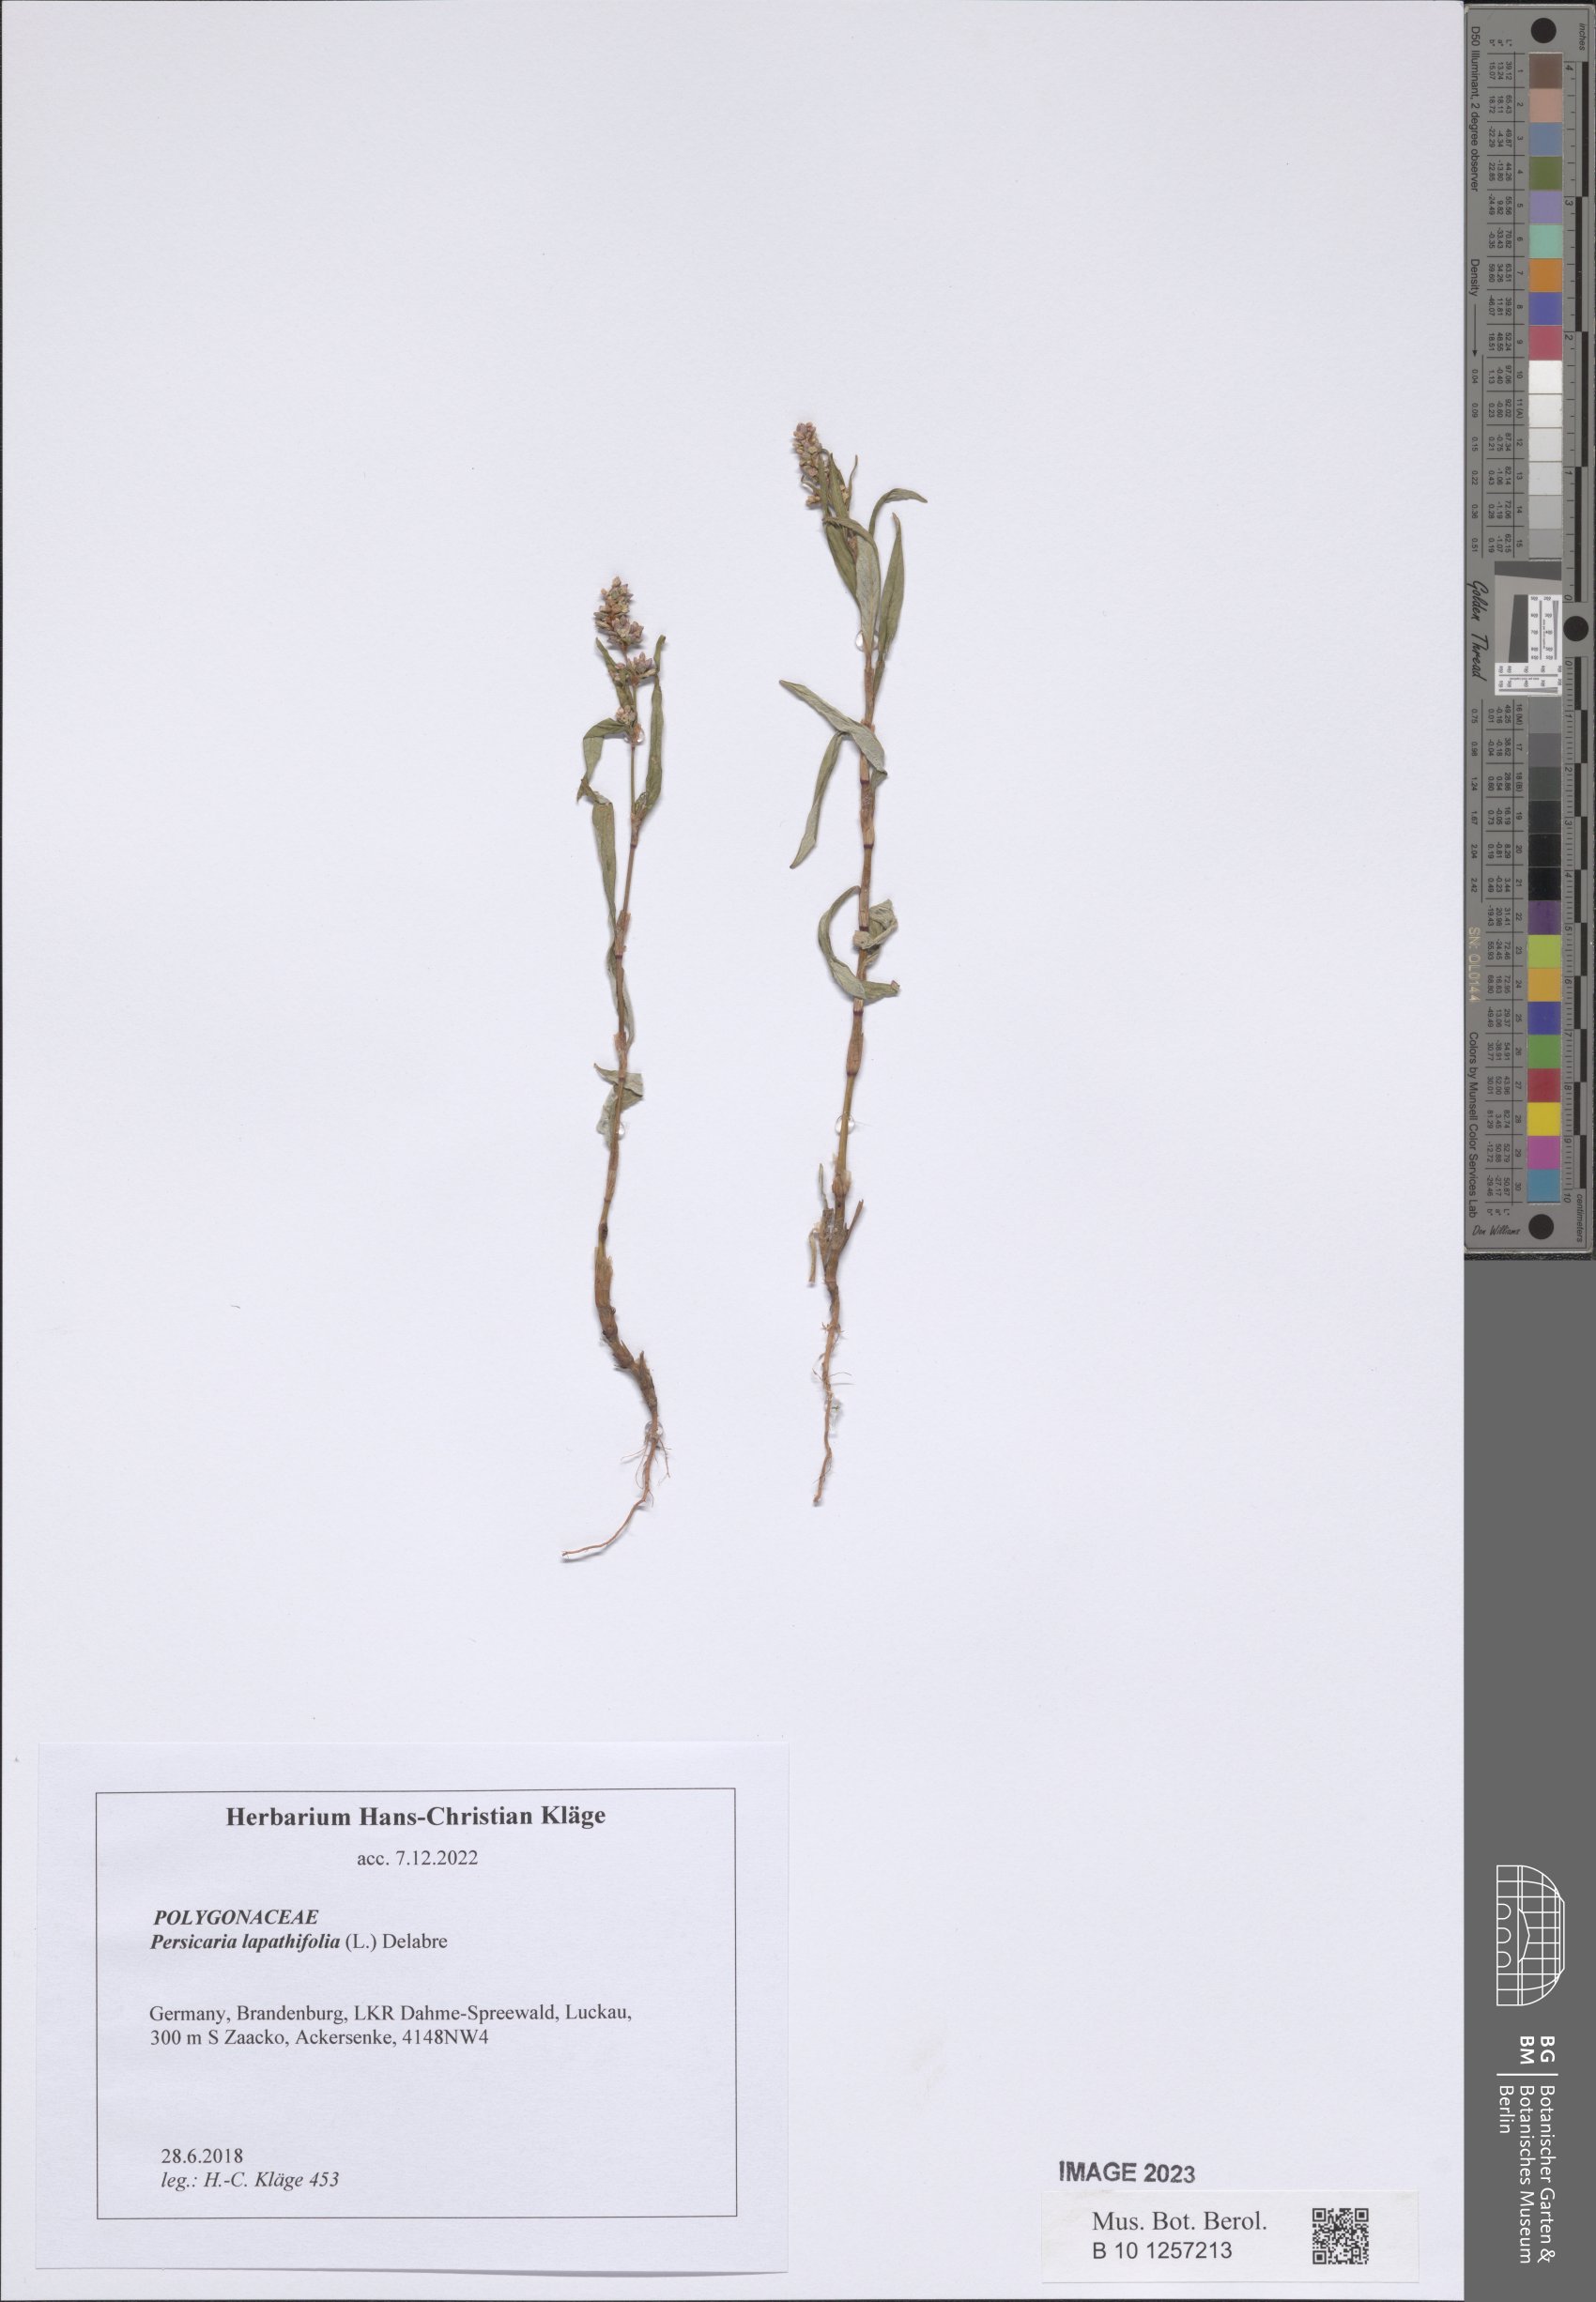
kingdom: Plantae
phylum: Tracheophyta
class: Magnoliopsida
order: Caryophyllales
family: Polygonaceae
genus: Persicaria
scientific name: Persicaria lapathifolia
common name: Curlytop knotweed
